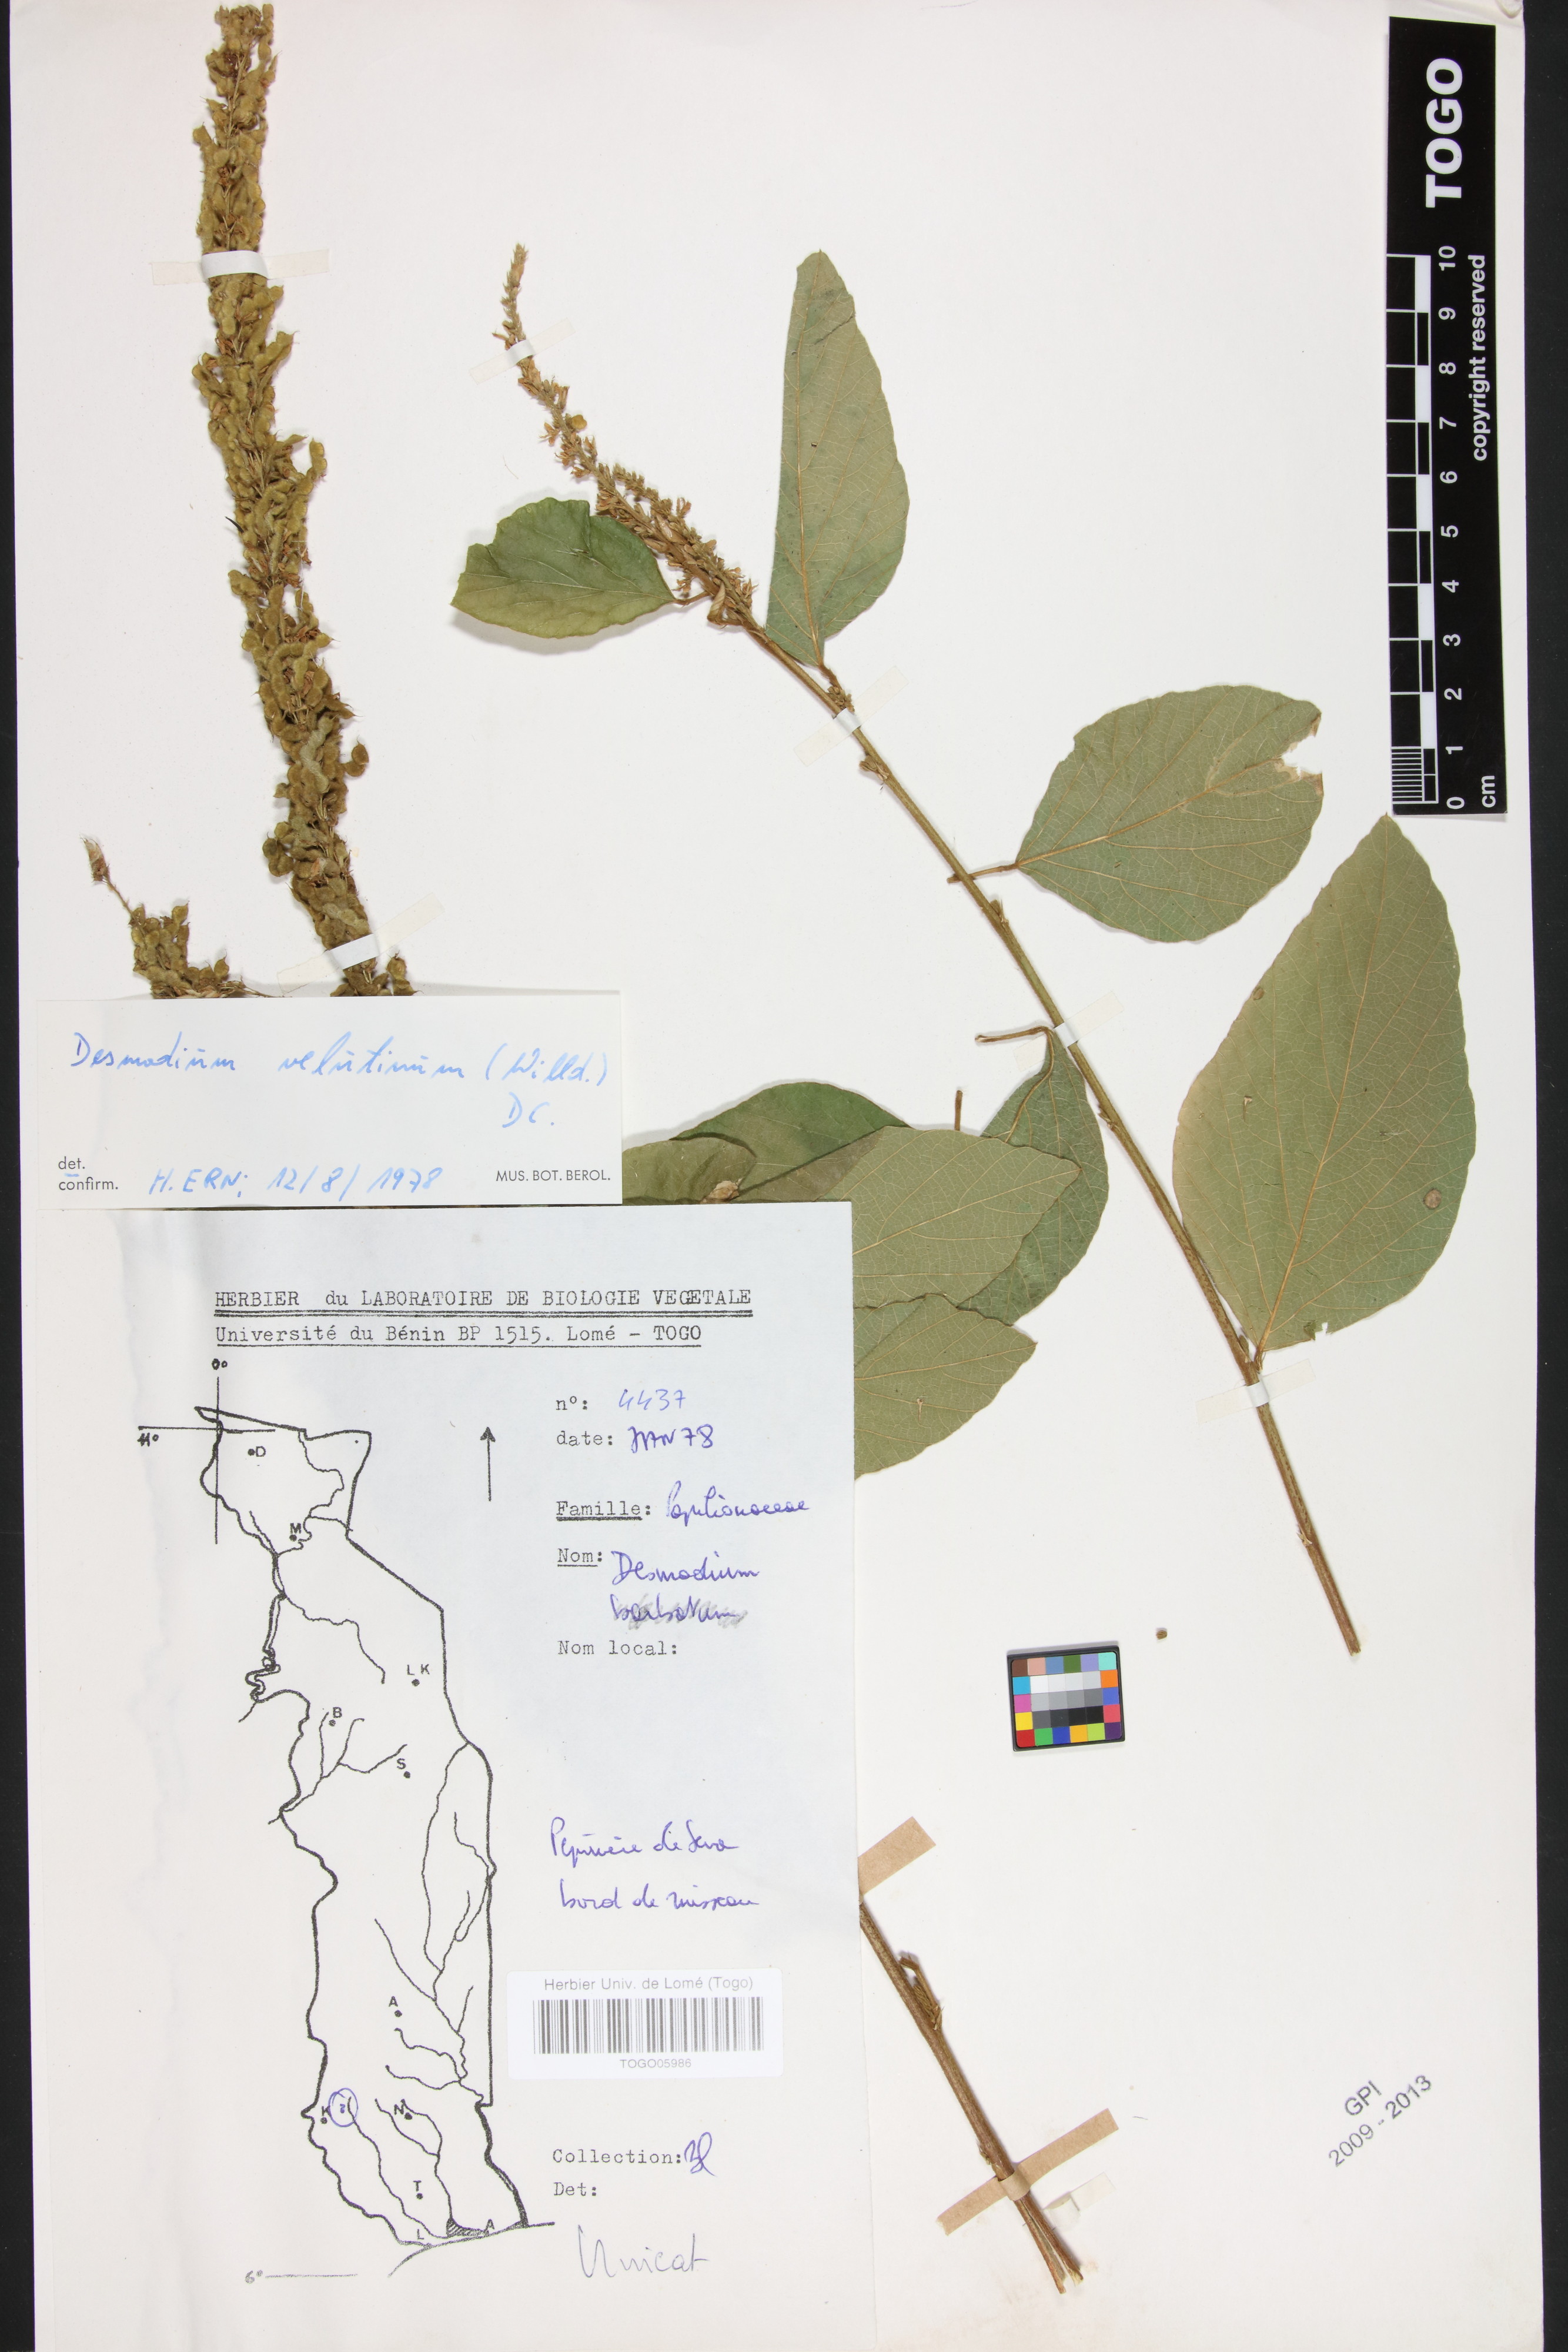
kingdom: Plantae
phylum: Tracheophyta
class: Magnoliopsida
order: Fabales
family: Fabaceae
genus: Polhillides
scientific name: Polhillides velutina
